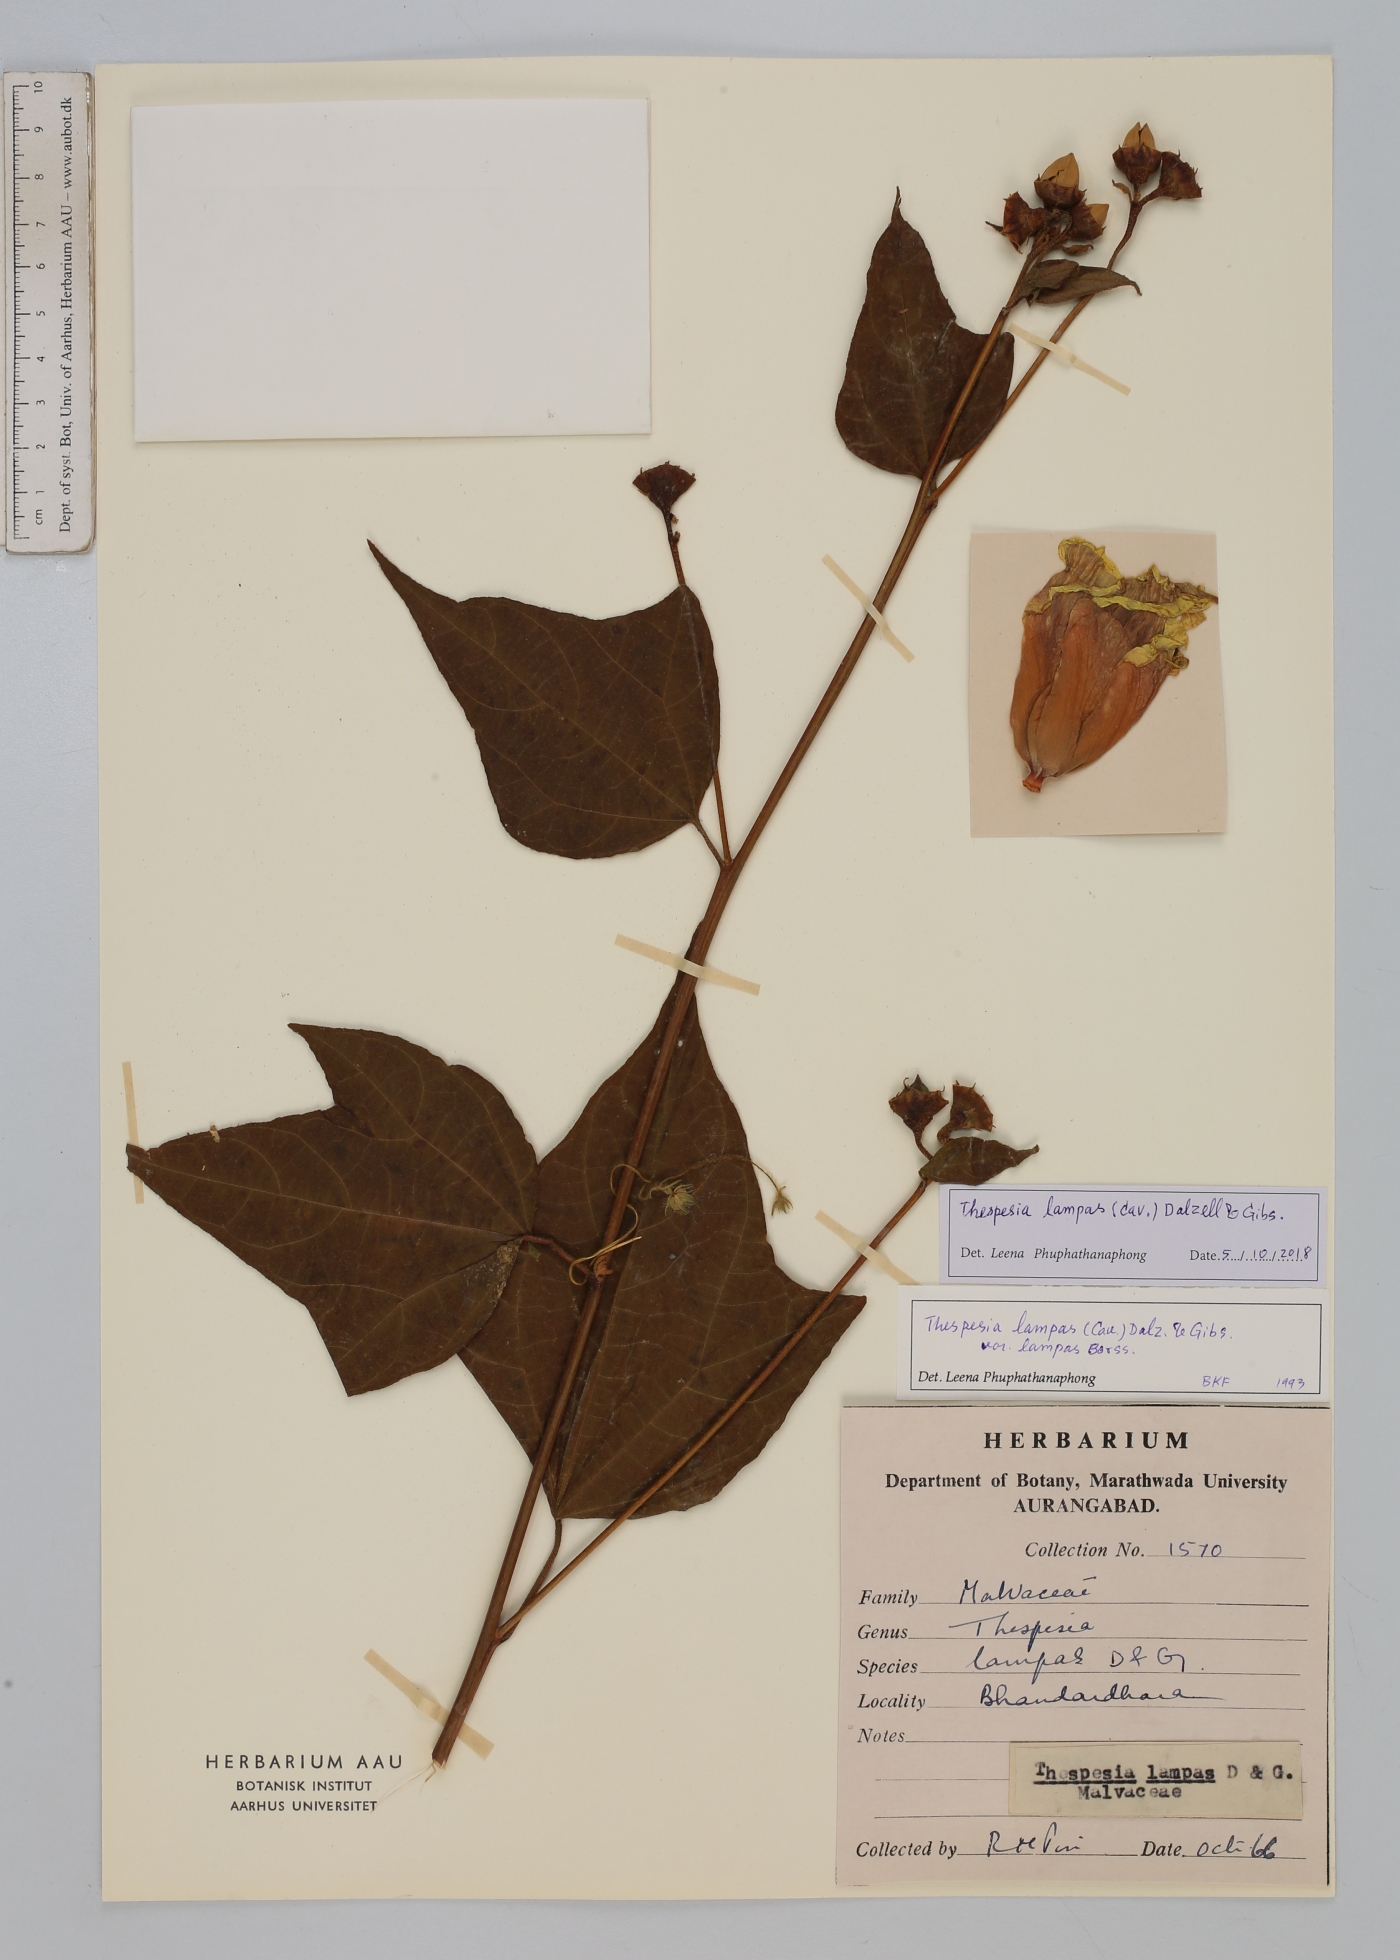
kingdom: Plantae
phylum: Tracheophyta
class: Magnoliopsida
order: Malvales
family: Malvaceae
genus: Thespesia
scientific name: Thespesia lampas
